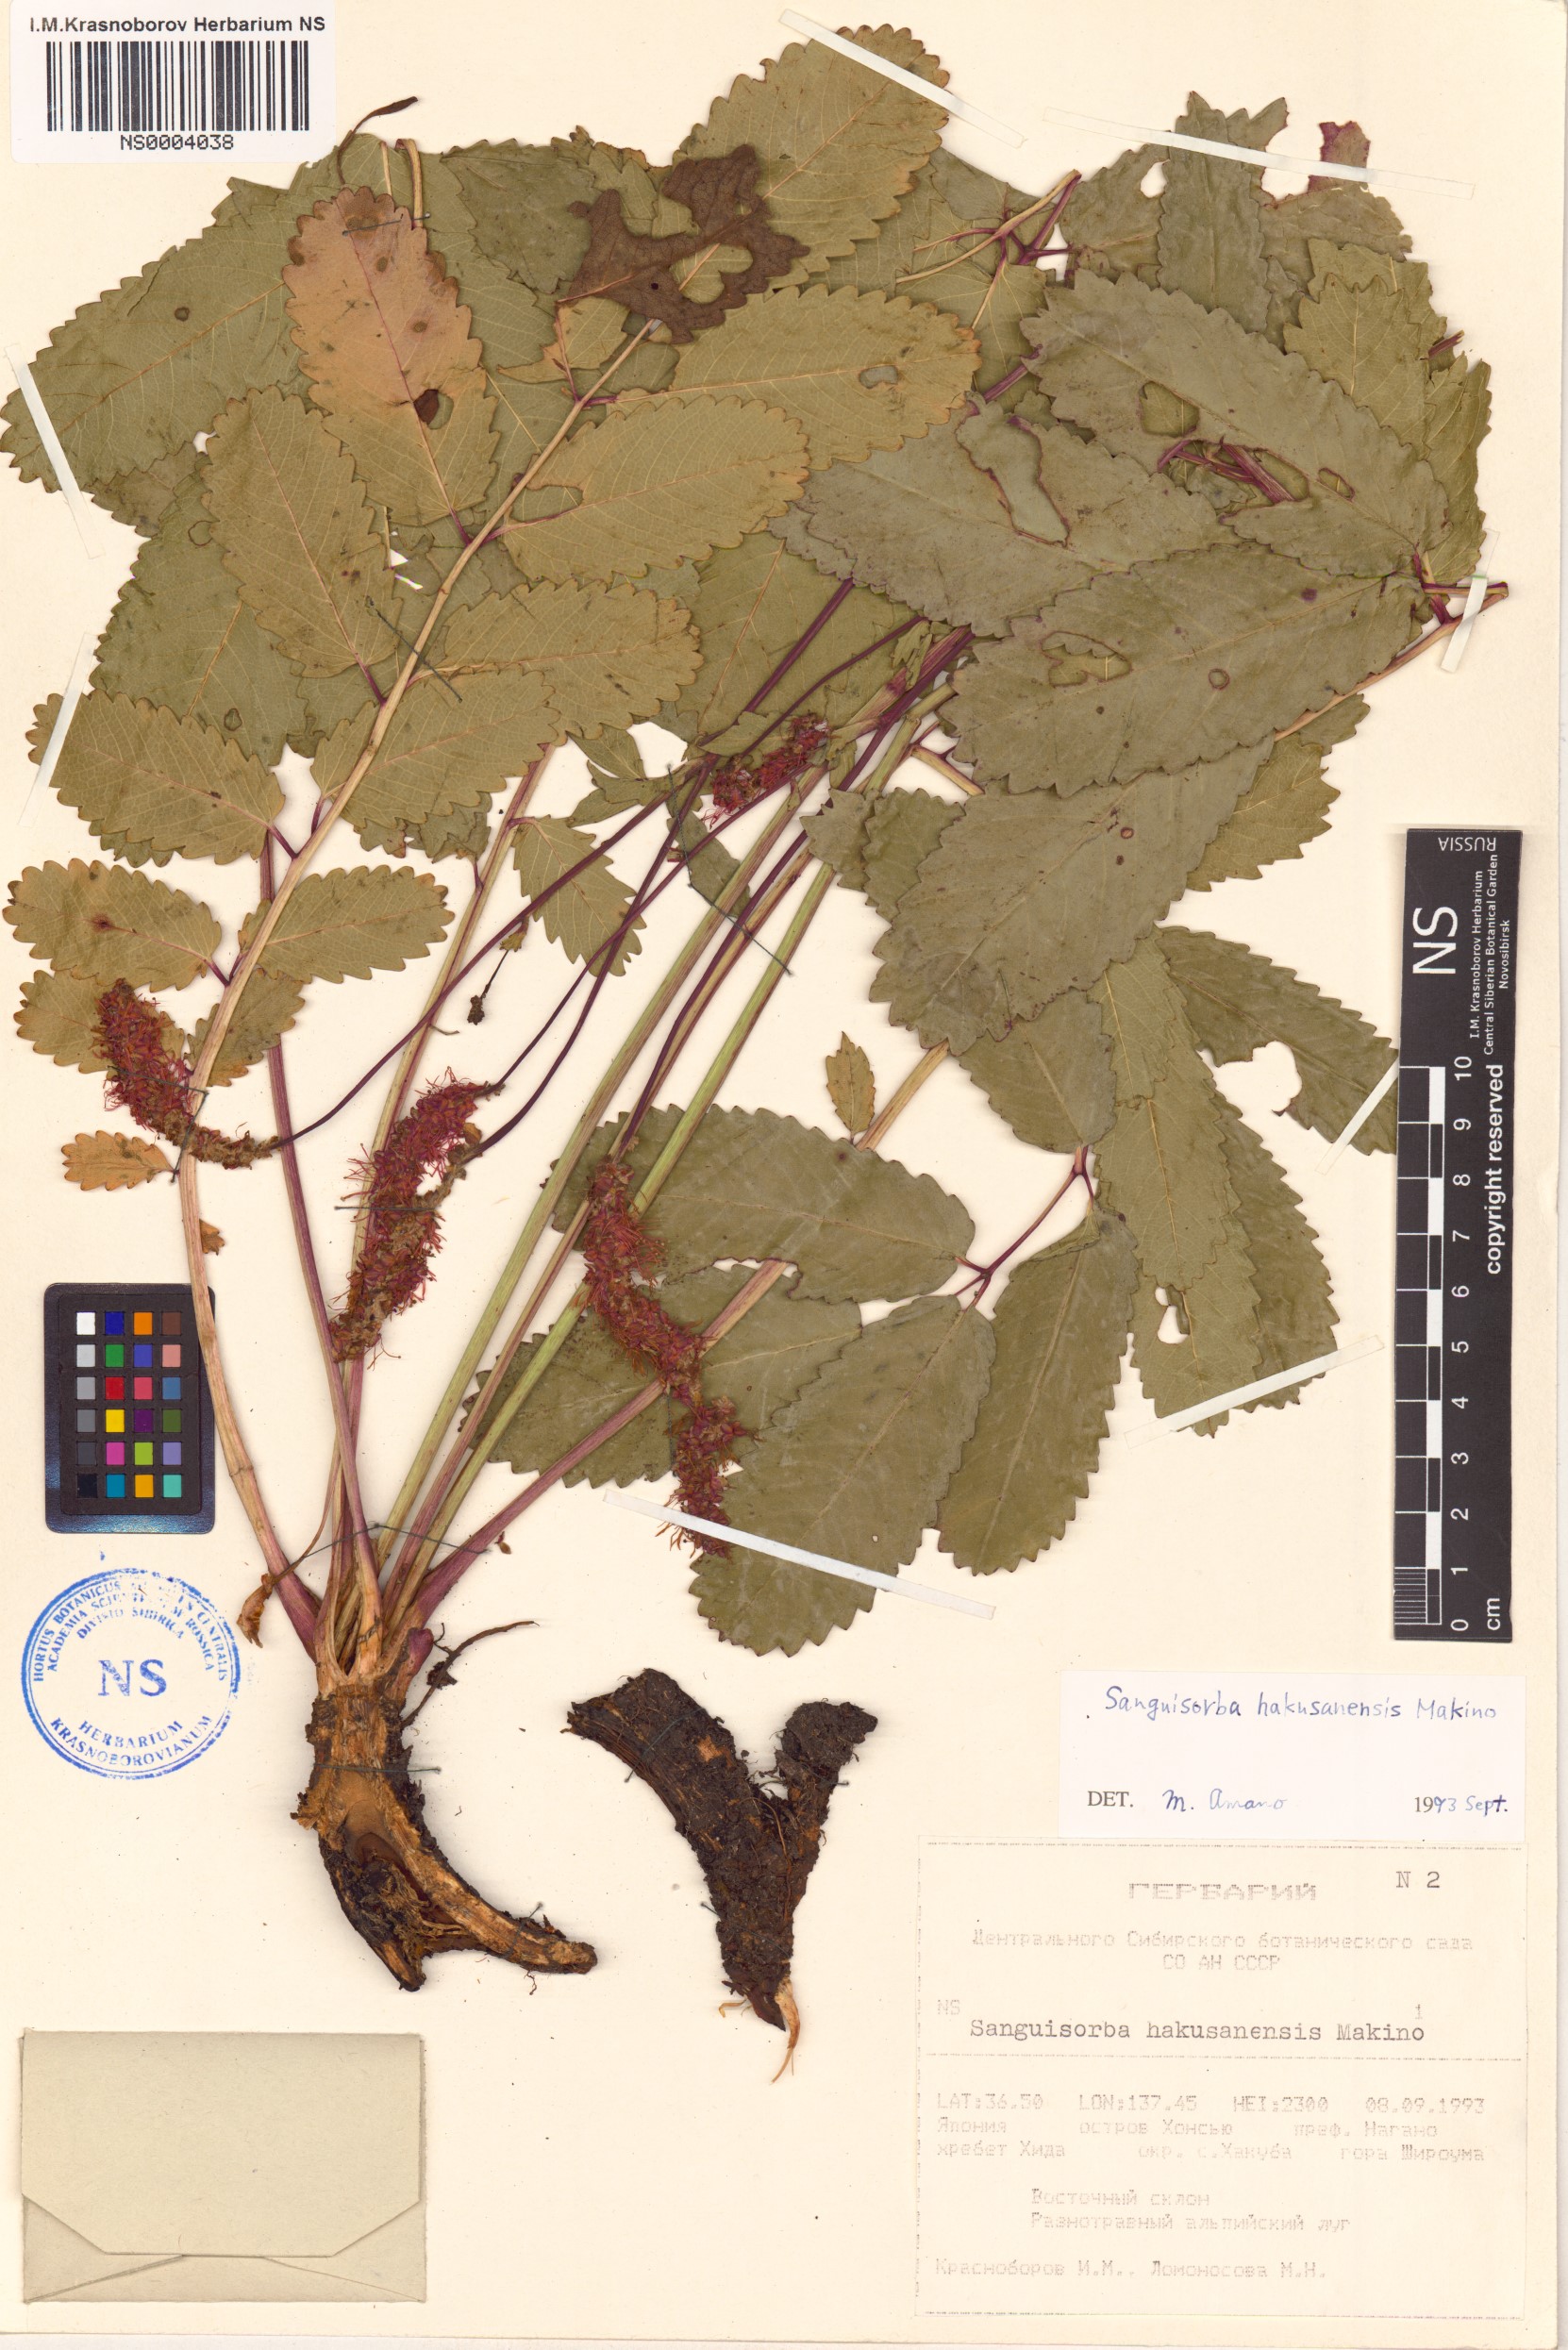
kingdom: Plantae
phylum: Tracheophyta
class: Magnoliopsida
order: Rosales
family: Rosaceae
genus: Sanguisorba
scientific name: Sanguisorba hakusanensis
